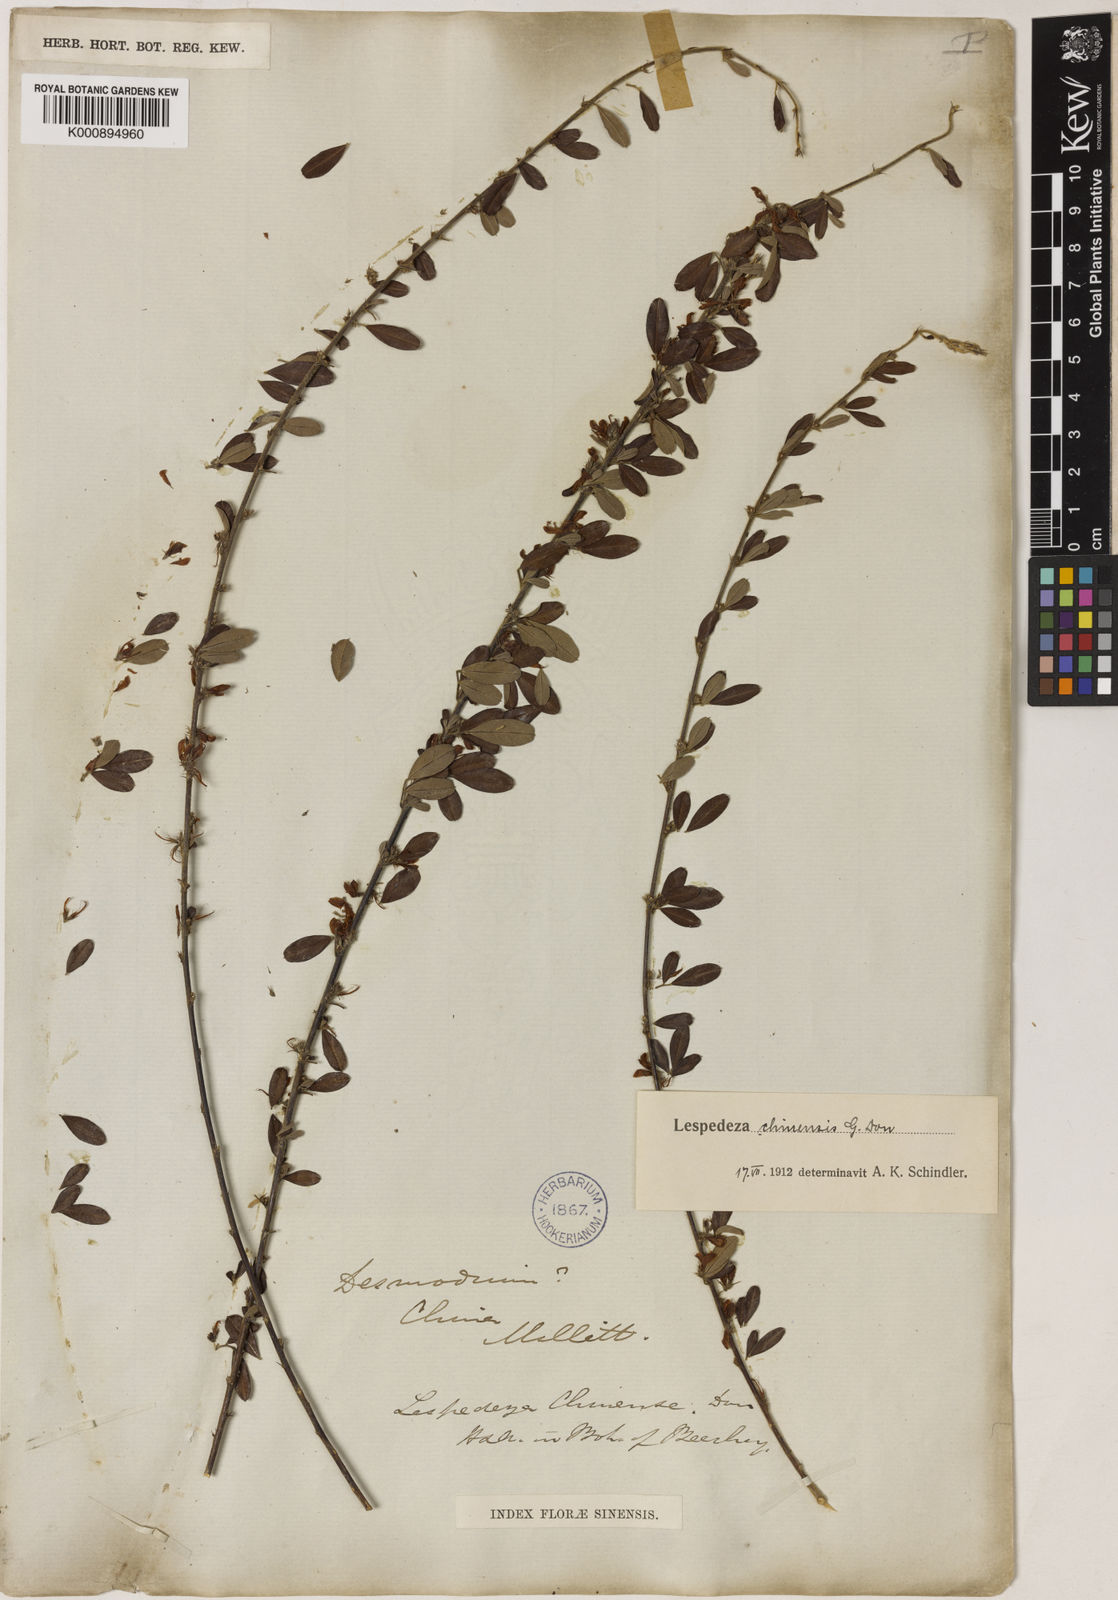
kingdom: Plantae
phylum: Tracheophyta
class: Magnoliopsida
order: Fabales
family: Fabaceae
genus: Lespedeza
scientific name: Lespedeza chinensis
